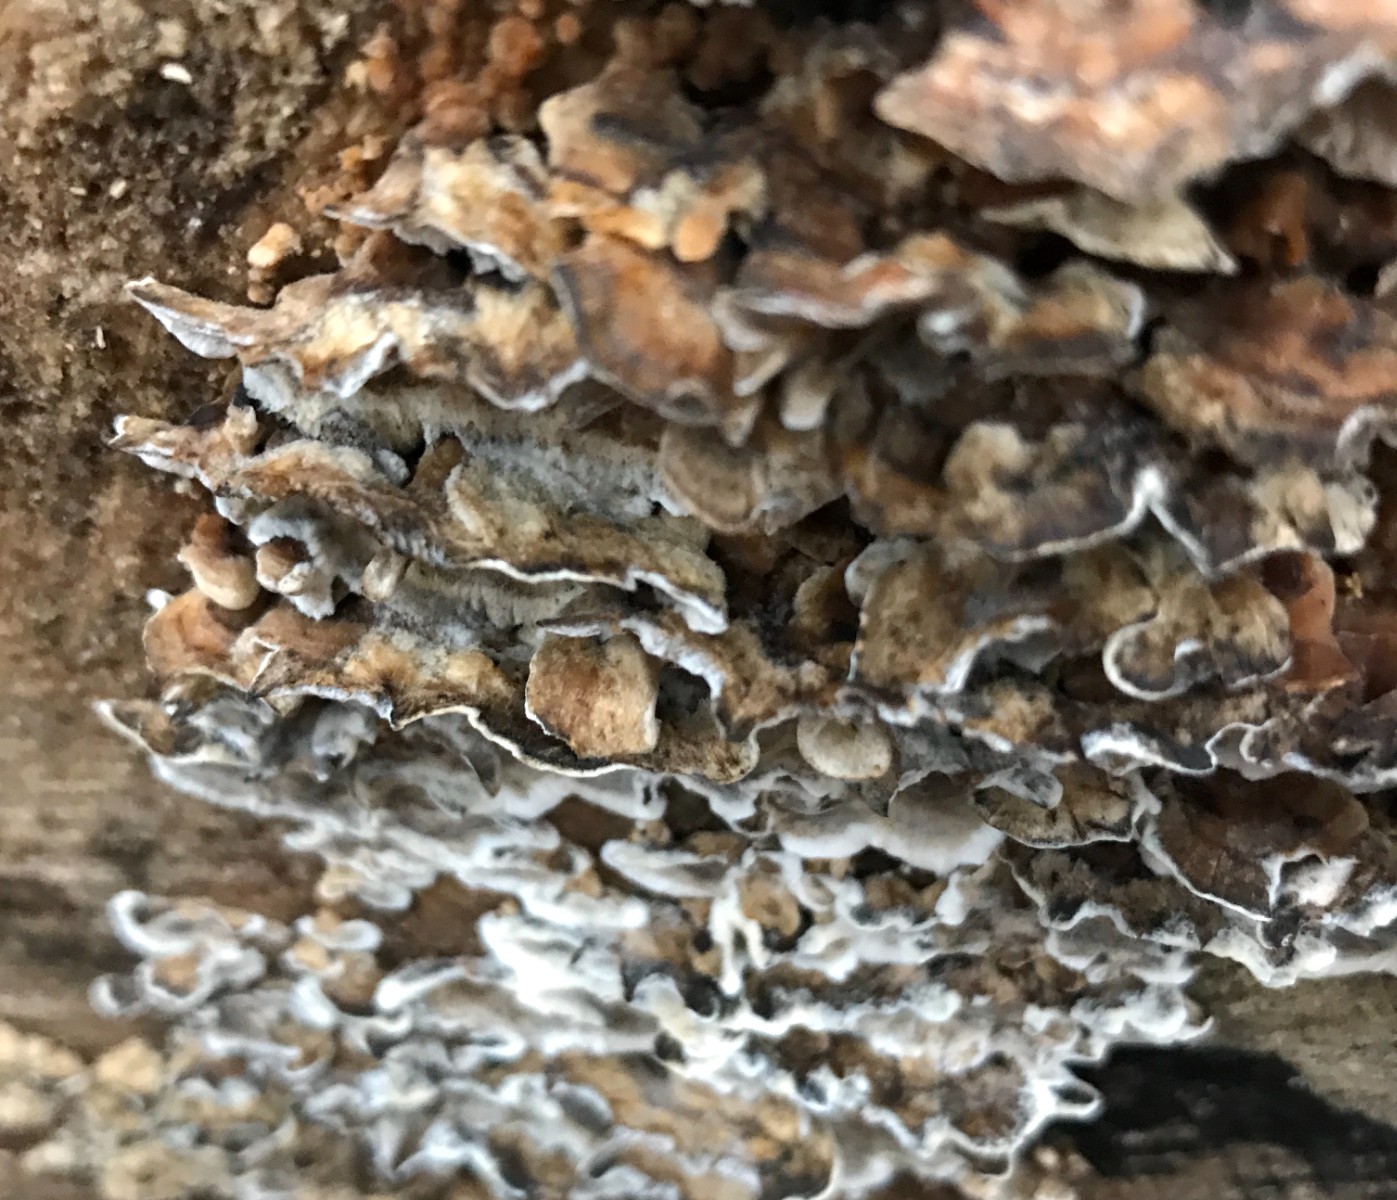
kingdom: Fungi
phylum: Basidiomycota
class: Agaricomycetes
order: Polyporales
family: Phanerochaetaceae
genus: Bjerkandera
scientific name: Bjerkandera adusta
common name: sveden sodporesvamp
